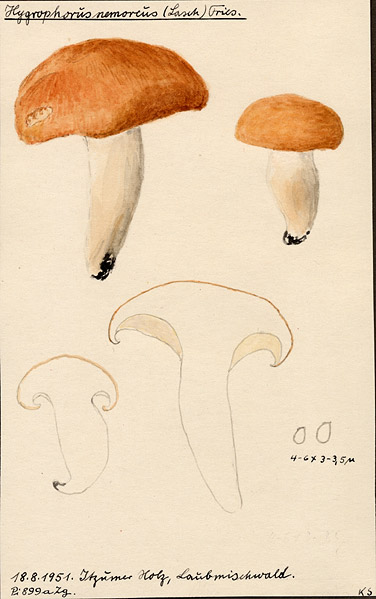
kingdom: Fungi
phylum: Basidiomycota
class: Agaricomycetes
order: Agaricales
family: Hygrophoraceae
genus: Hygrophorus
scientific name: Hygrophorus nemoreus
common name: Oak woodwax
